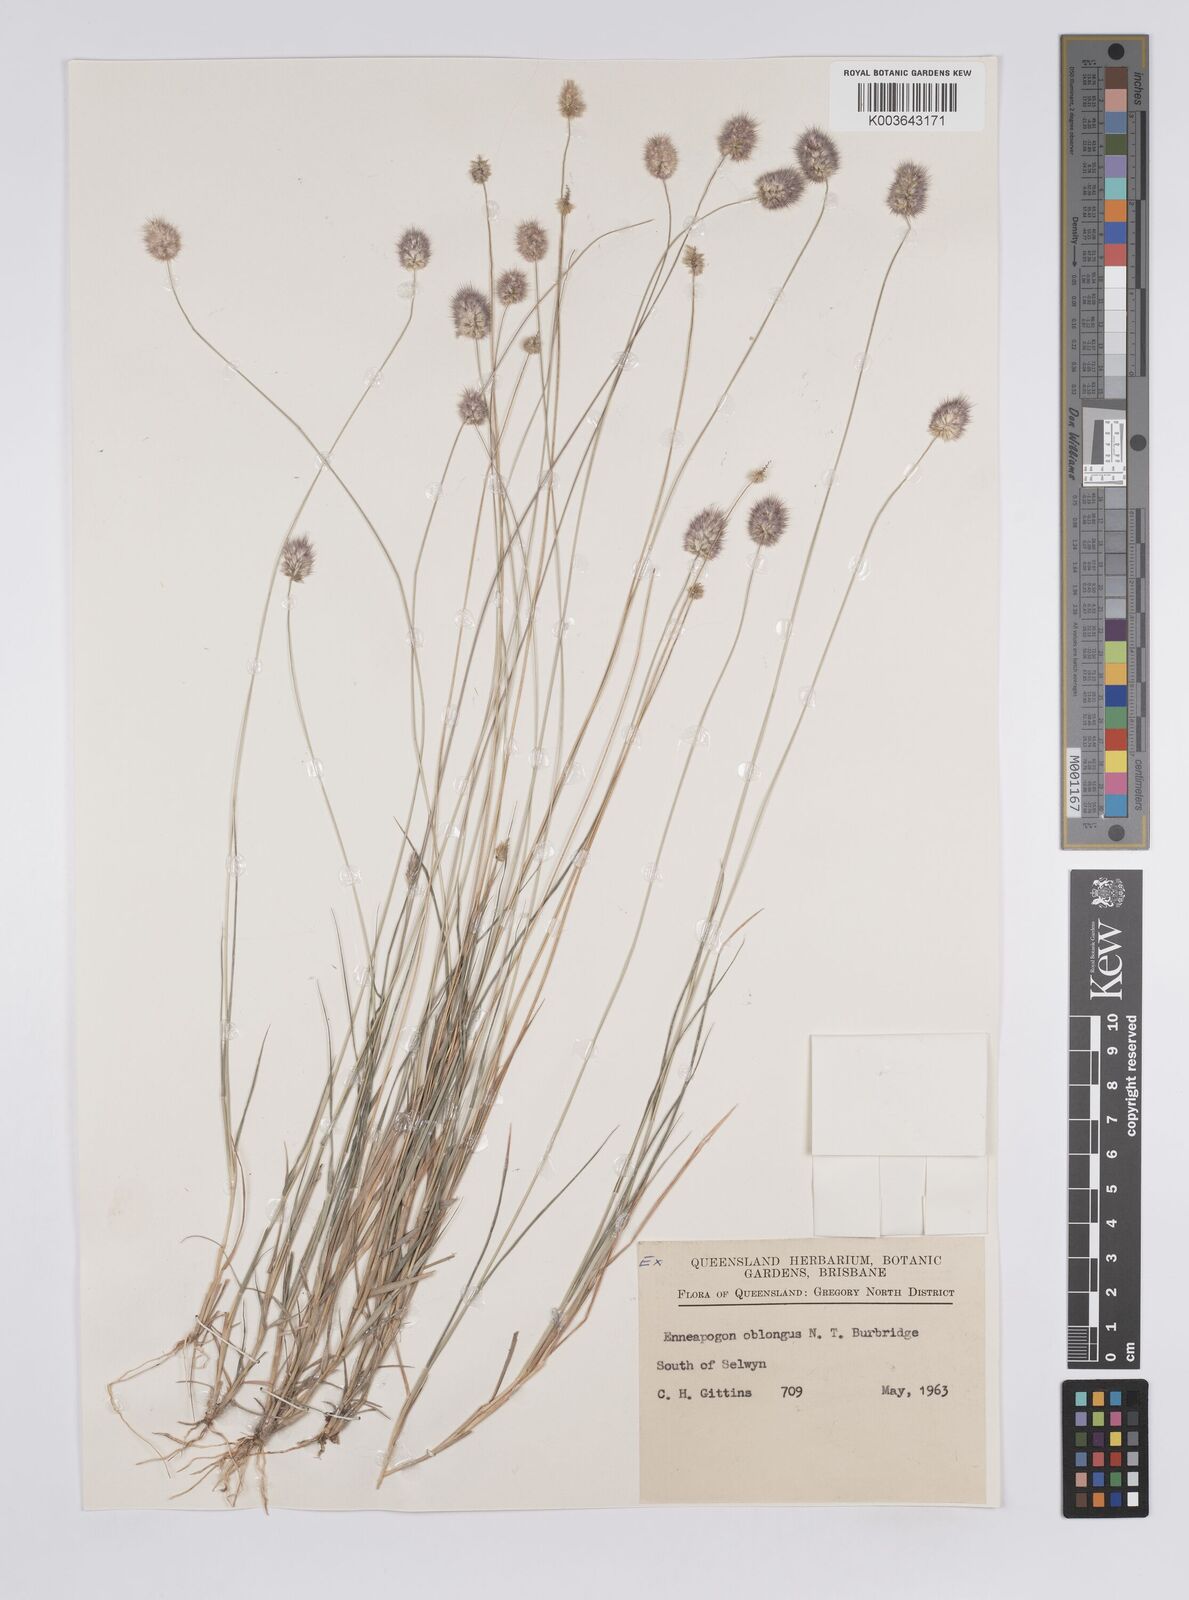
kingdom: Plantae
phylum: Tracheophyta
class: Liliopsida
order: Poales
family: Poaceae
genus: Enneapogon
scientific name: Enneapogon lindleyanus
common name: Conetop nineawn
